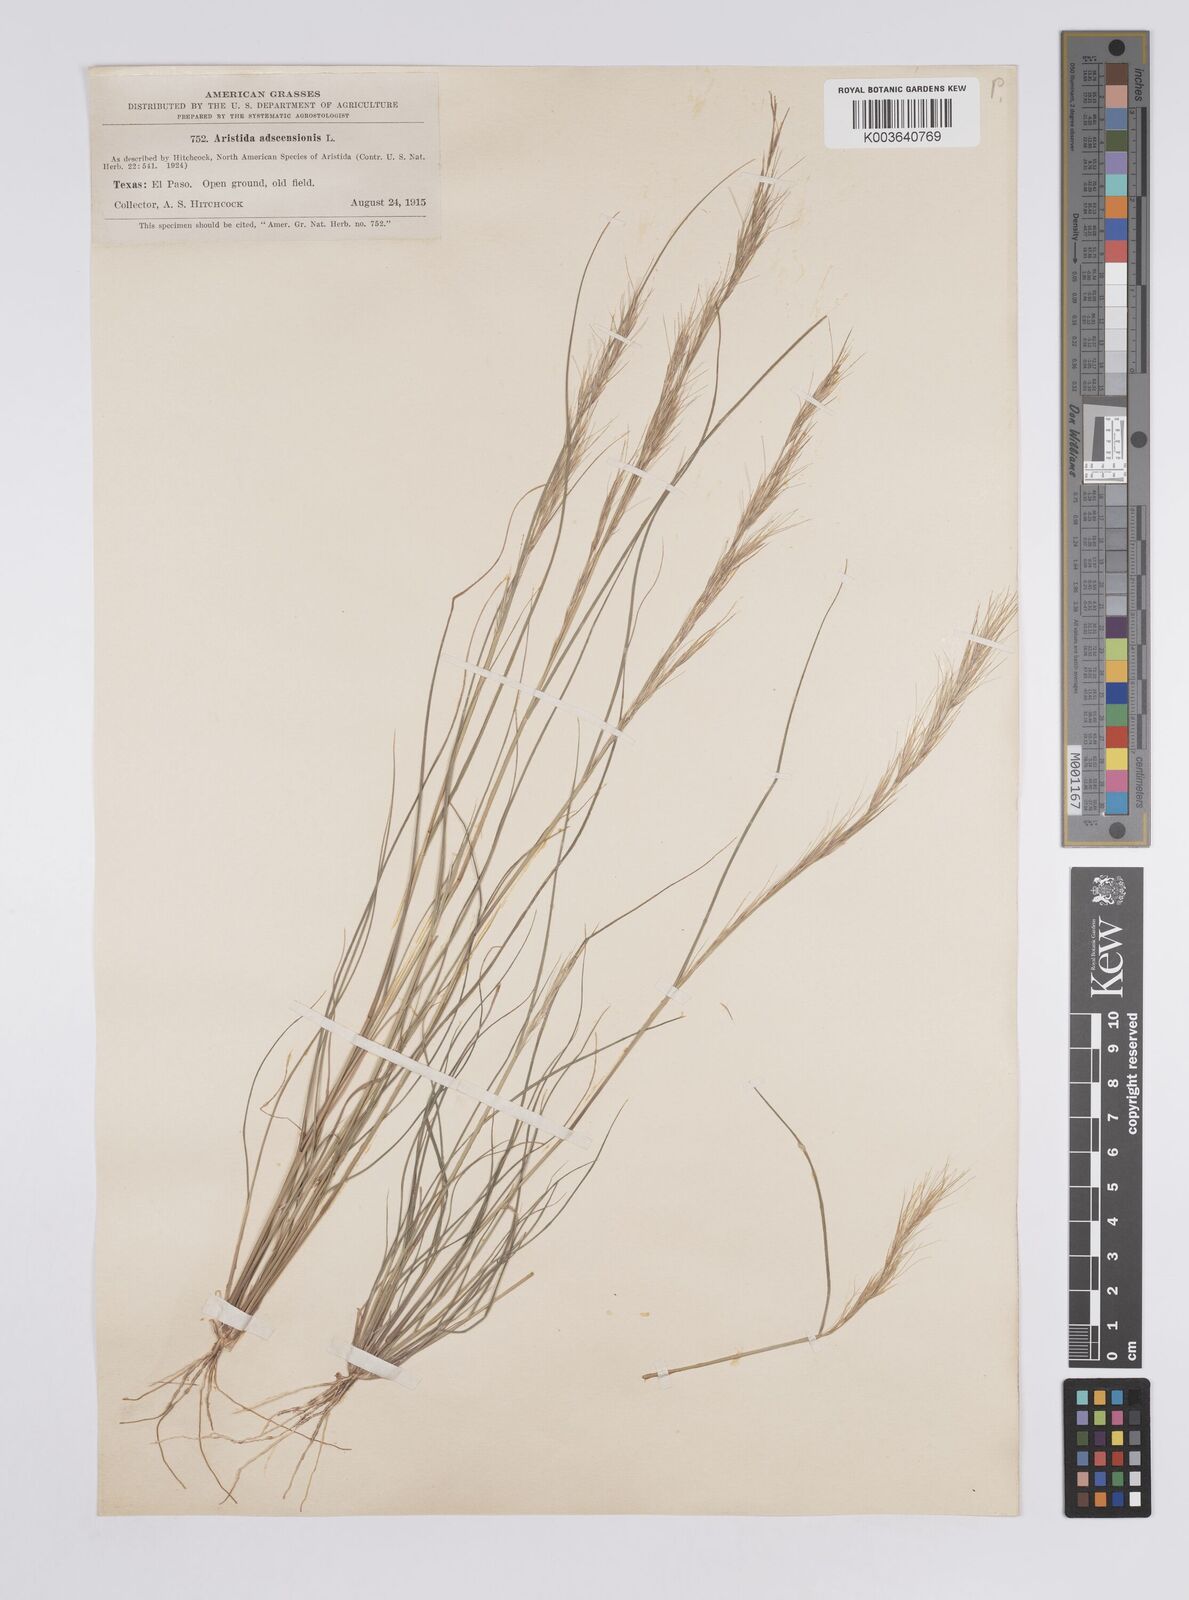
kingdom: Plantae
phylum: Tracheophyta
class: Liliopsida
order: Poales
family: Poaceae
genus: Aristida
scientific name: Aristida adscensionis
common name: Sixweeks threeawn
